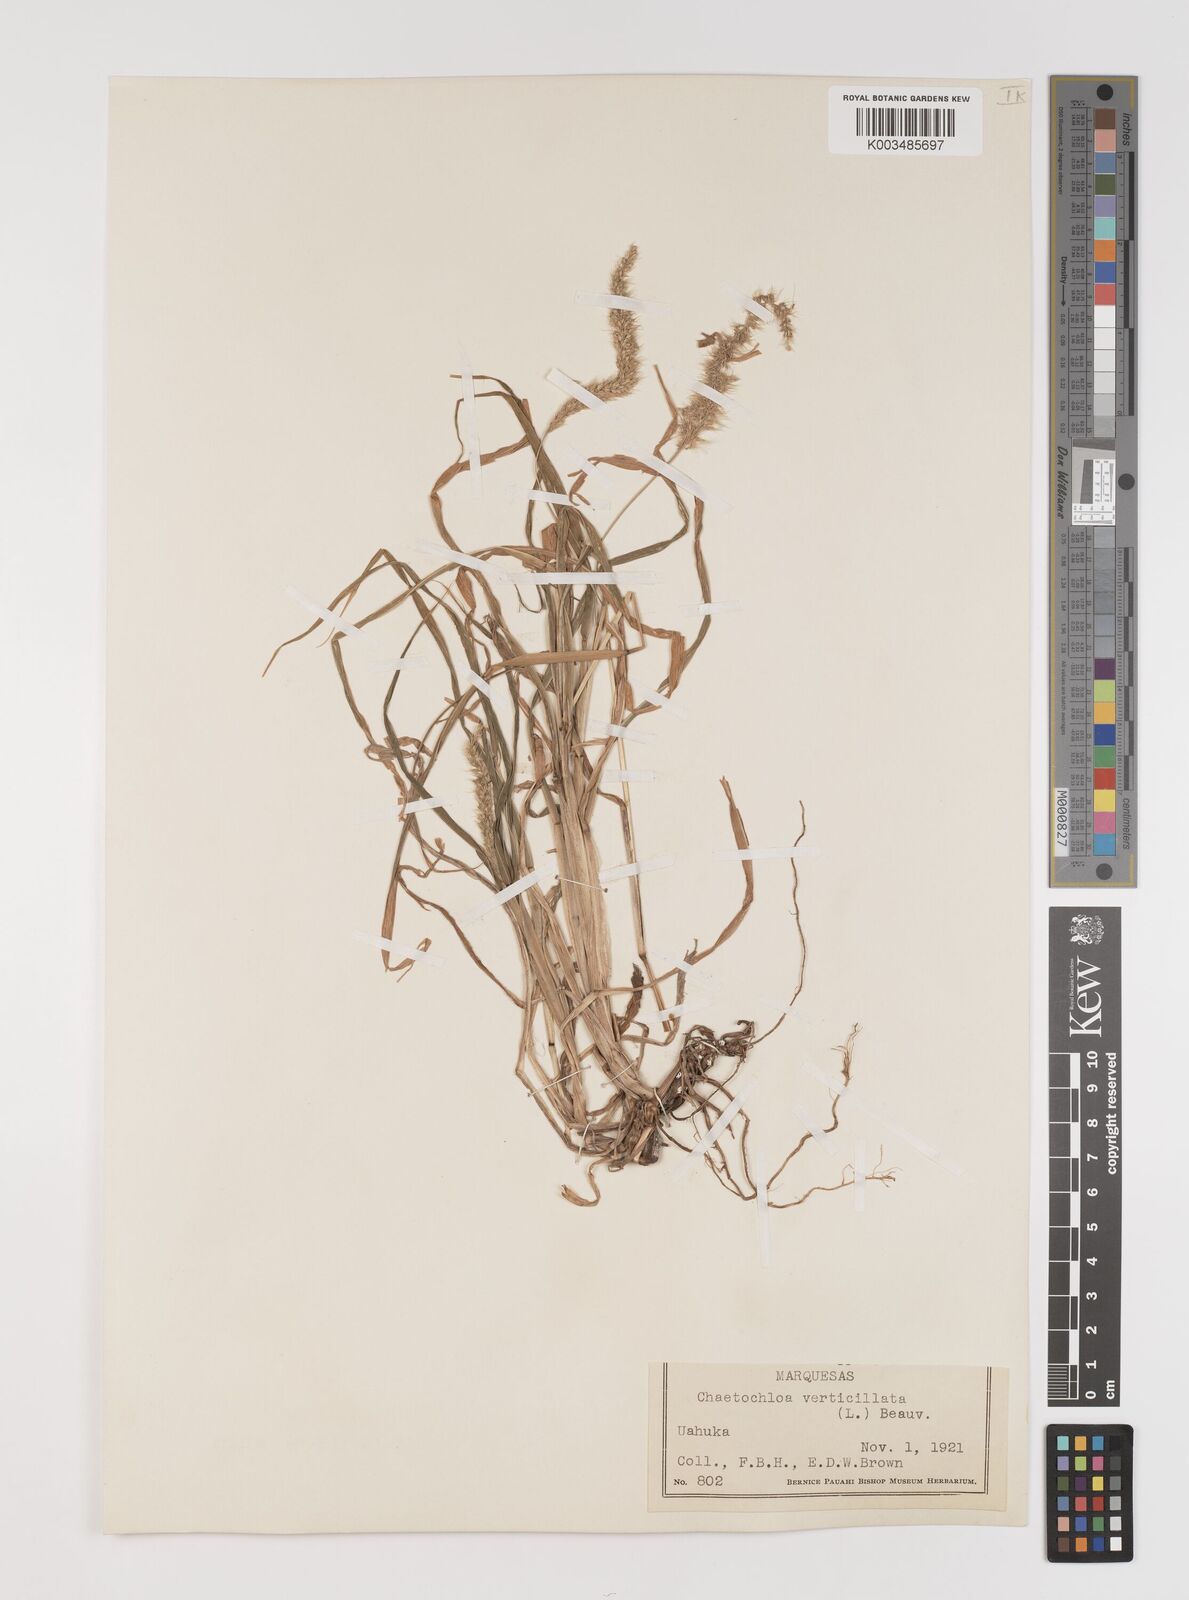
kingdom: Plantae
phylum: Tracheophyta
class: Liliopsida
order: Poales
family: Poaceae
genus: Setaria
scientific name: Setaria verticillata
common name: Hooked bristlegrass
